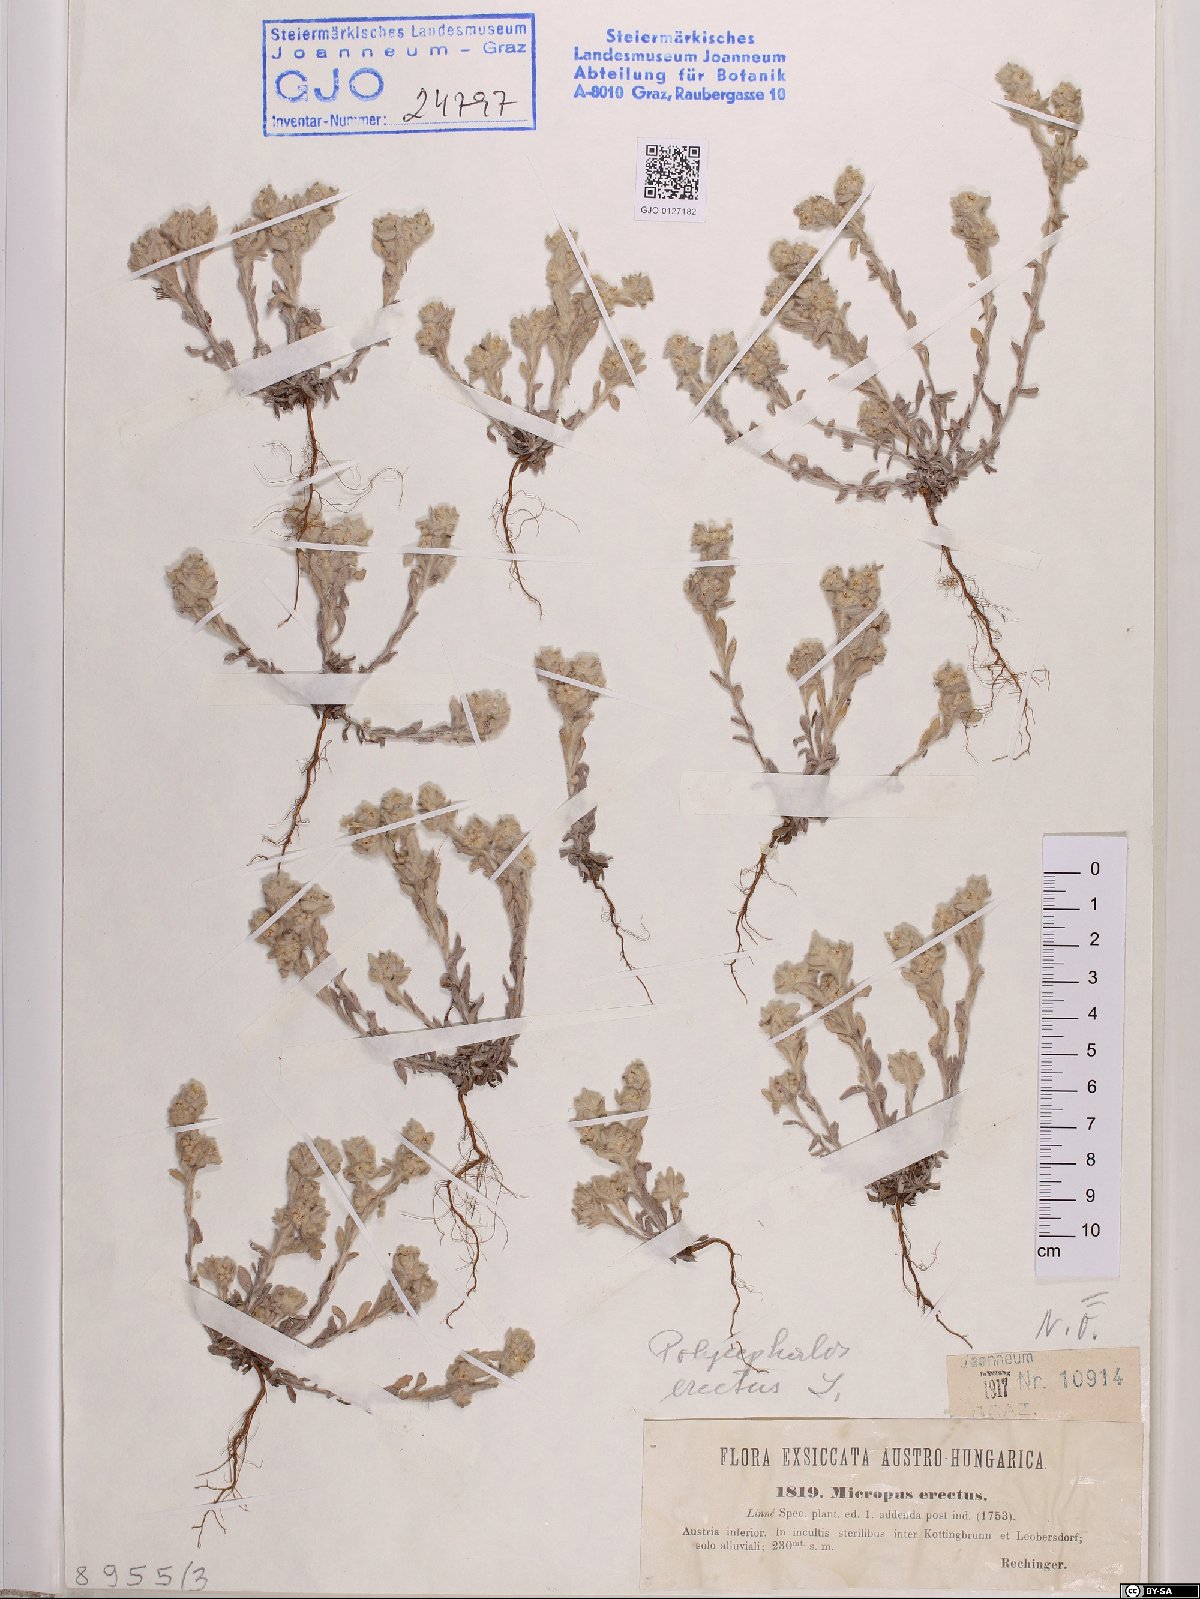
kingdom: Plantae
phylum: Tracheophyta
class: Magnoliopsida
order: Asterales
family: Asteraceae
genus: Bombycilaena
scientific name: Bombycilaena erecta
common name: Micropus
